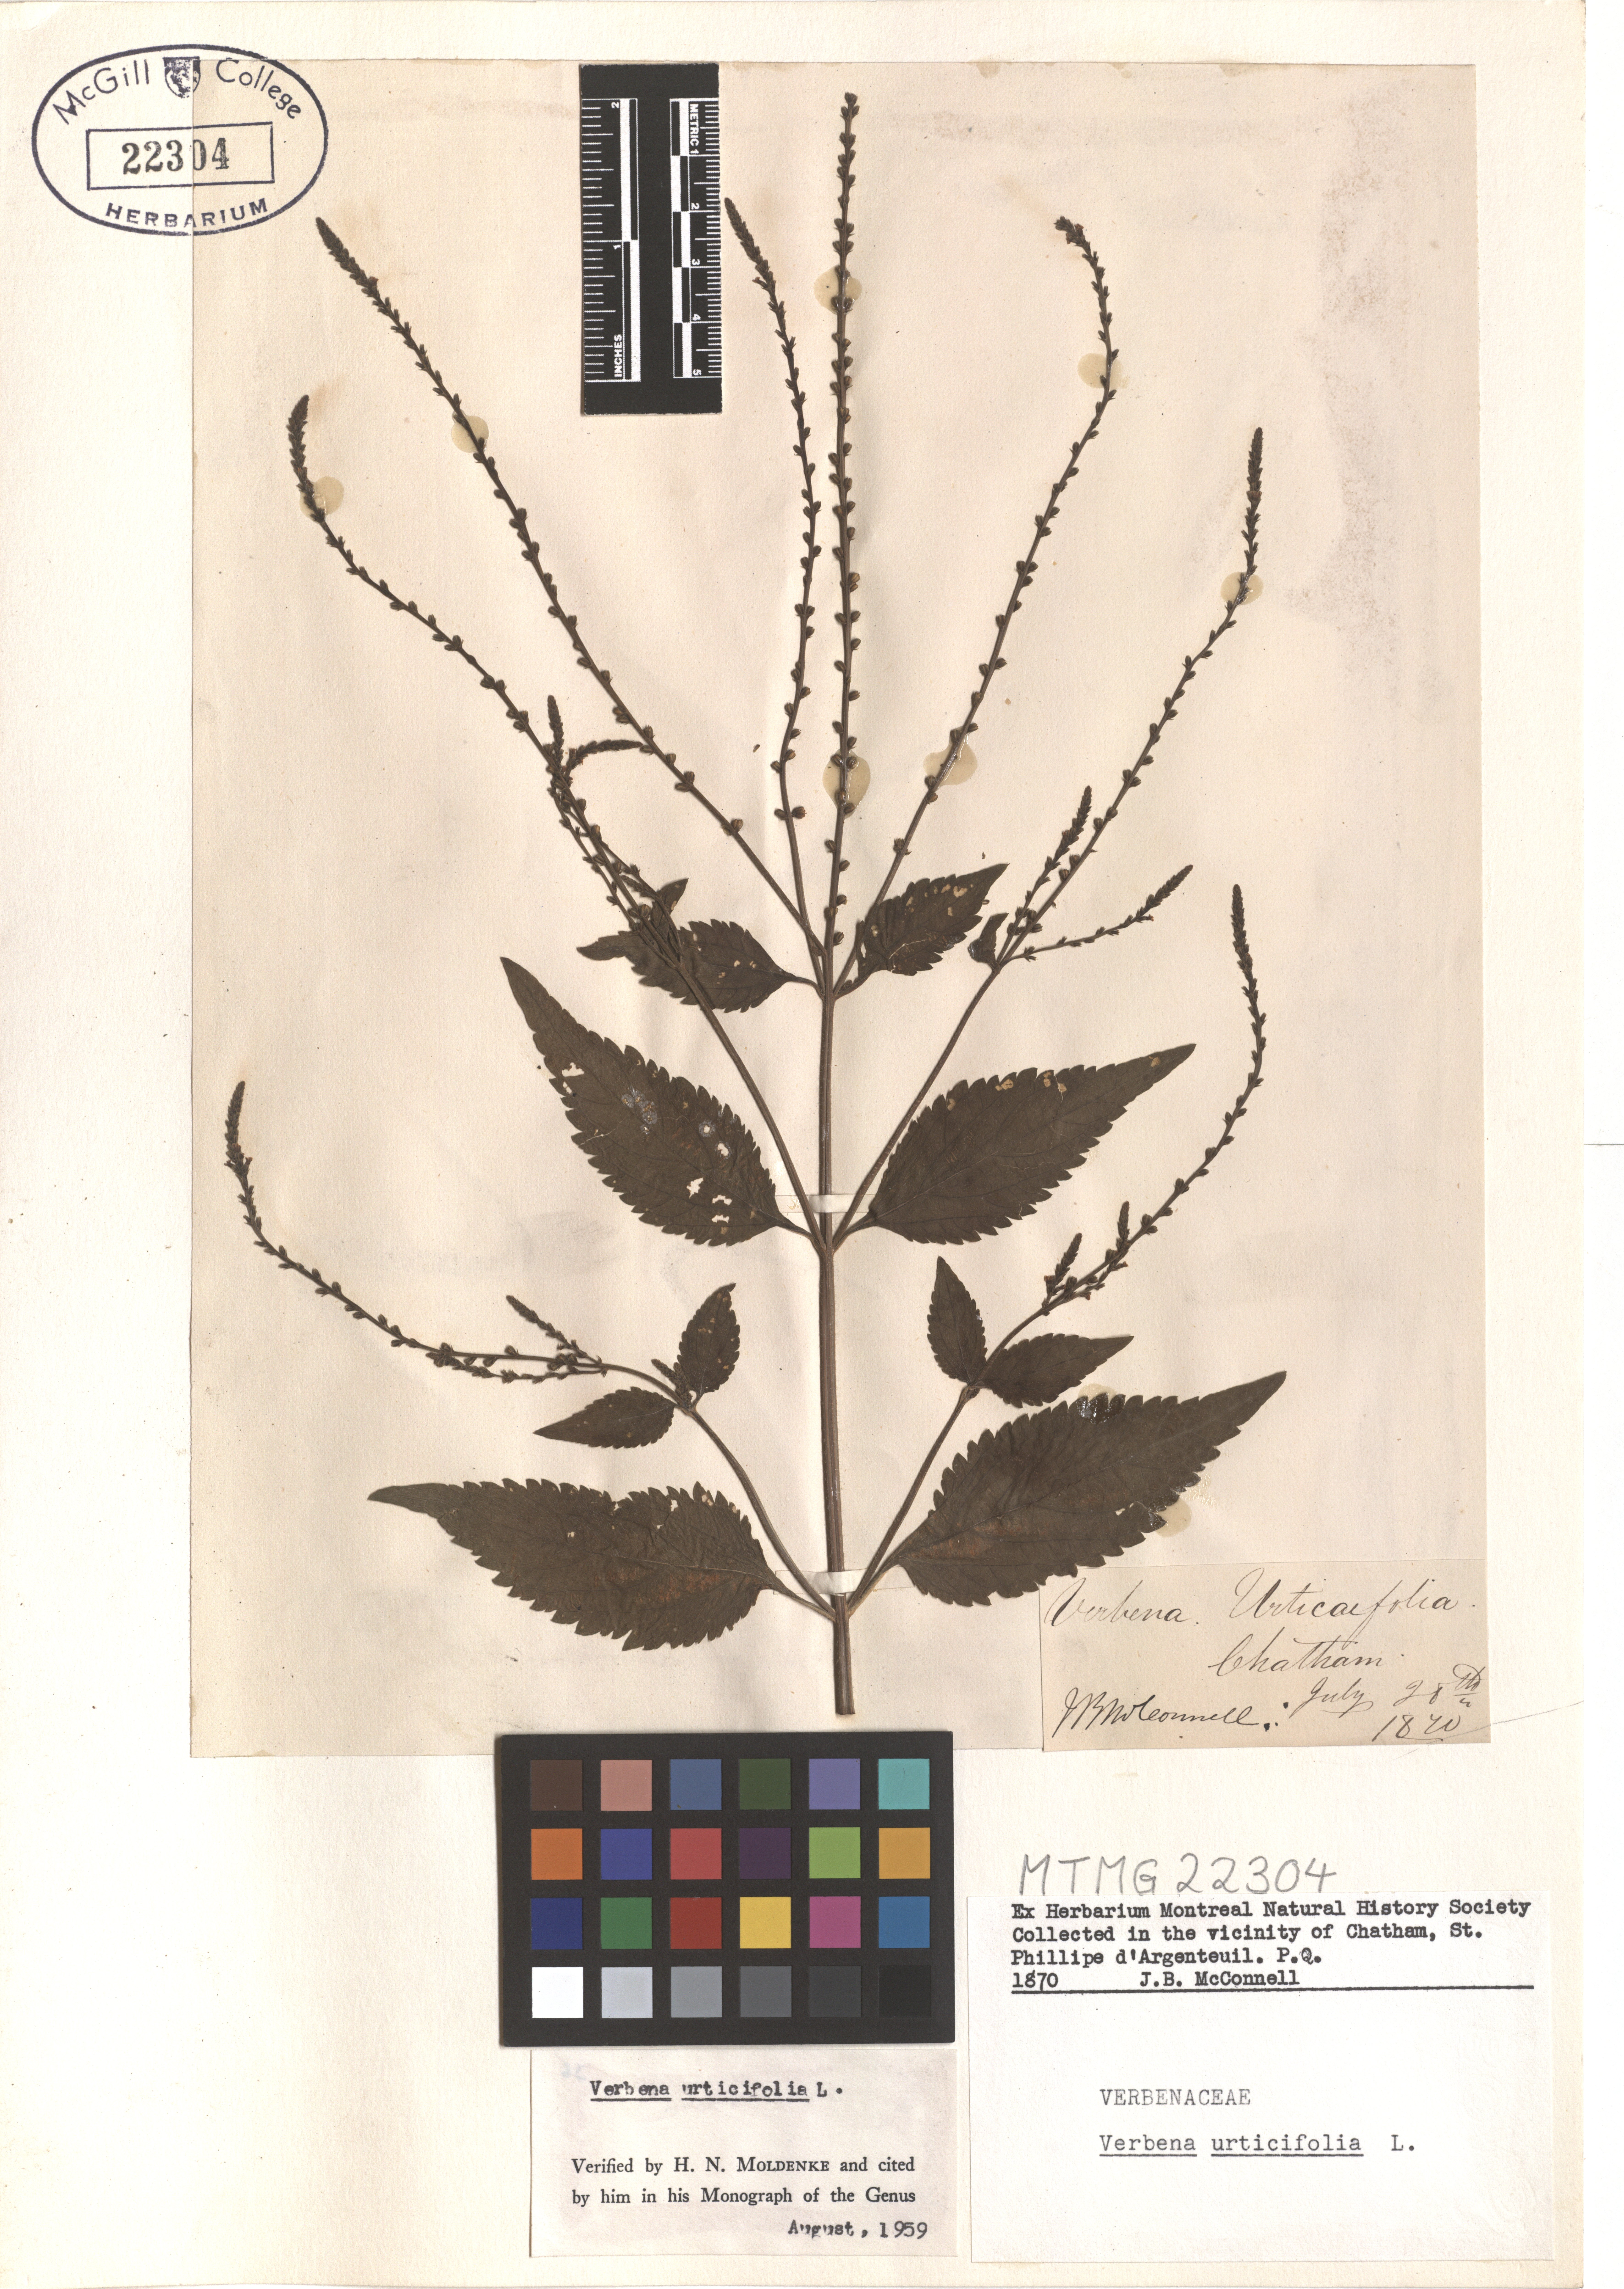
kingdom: Plantae
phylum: Tracheophyta
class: Magnoliopsida
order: Lamiales
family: Verbenaceae
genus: Verbena
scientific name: Verbena urticifolia
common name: Nettle-leaved vervain
